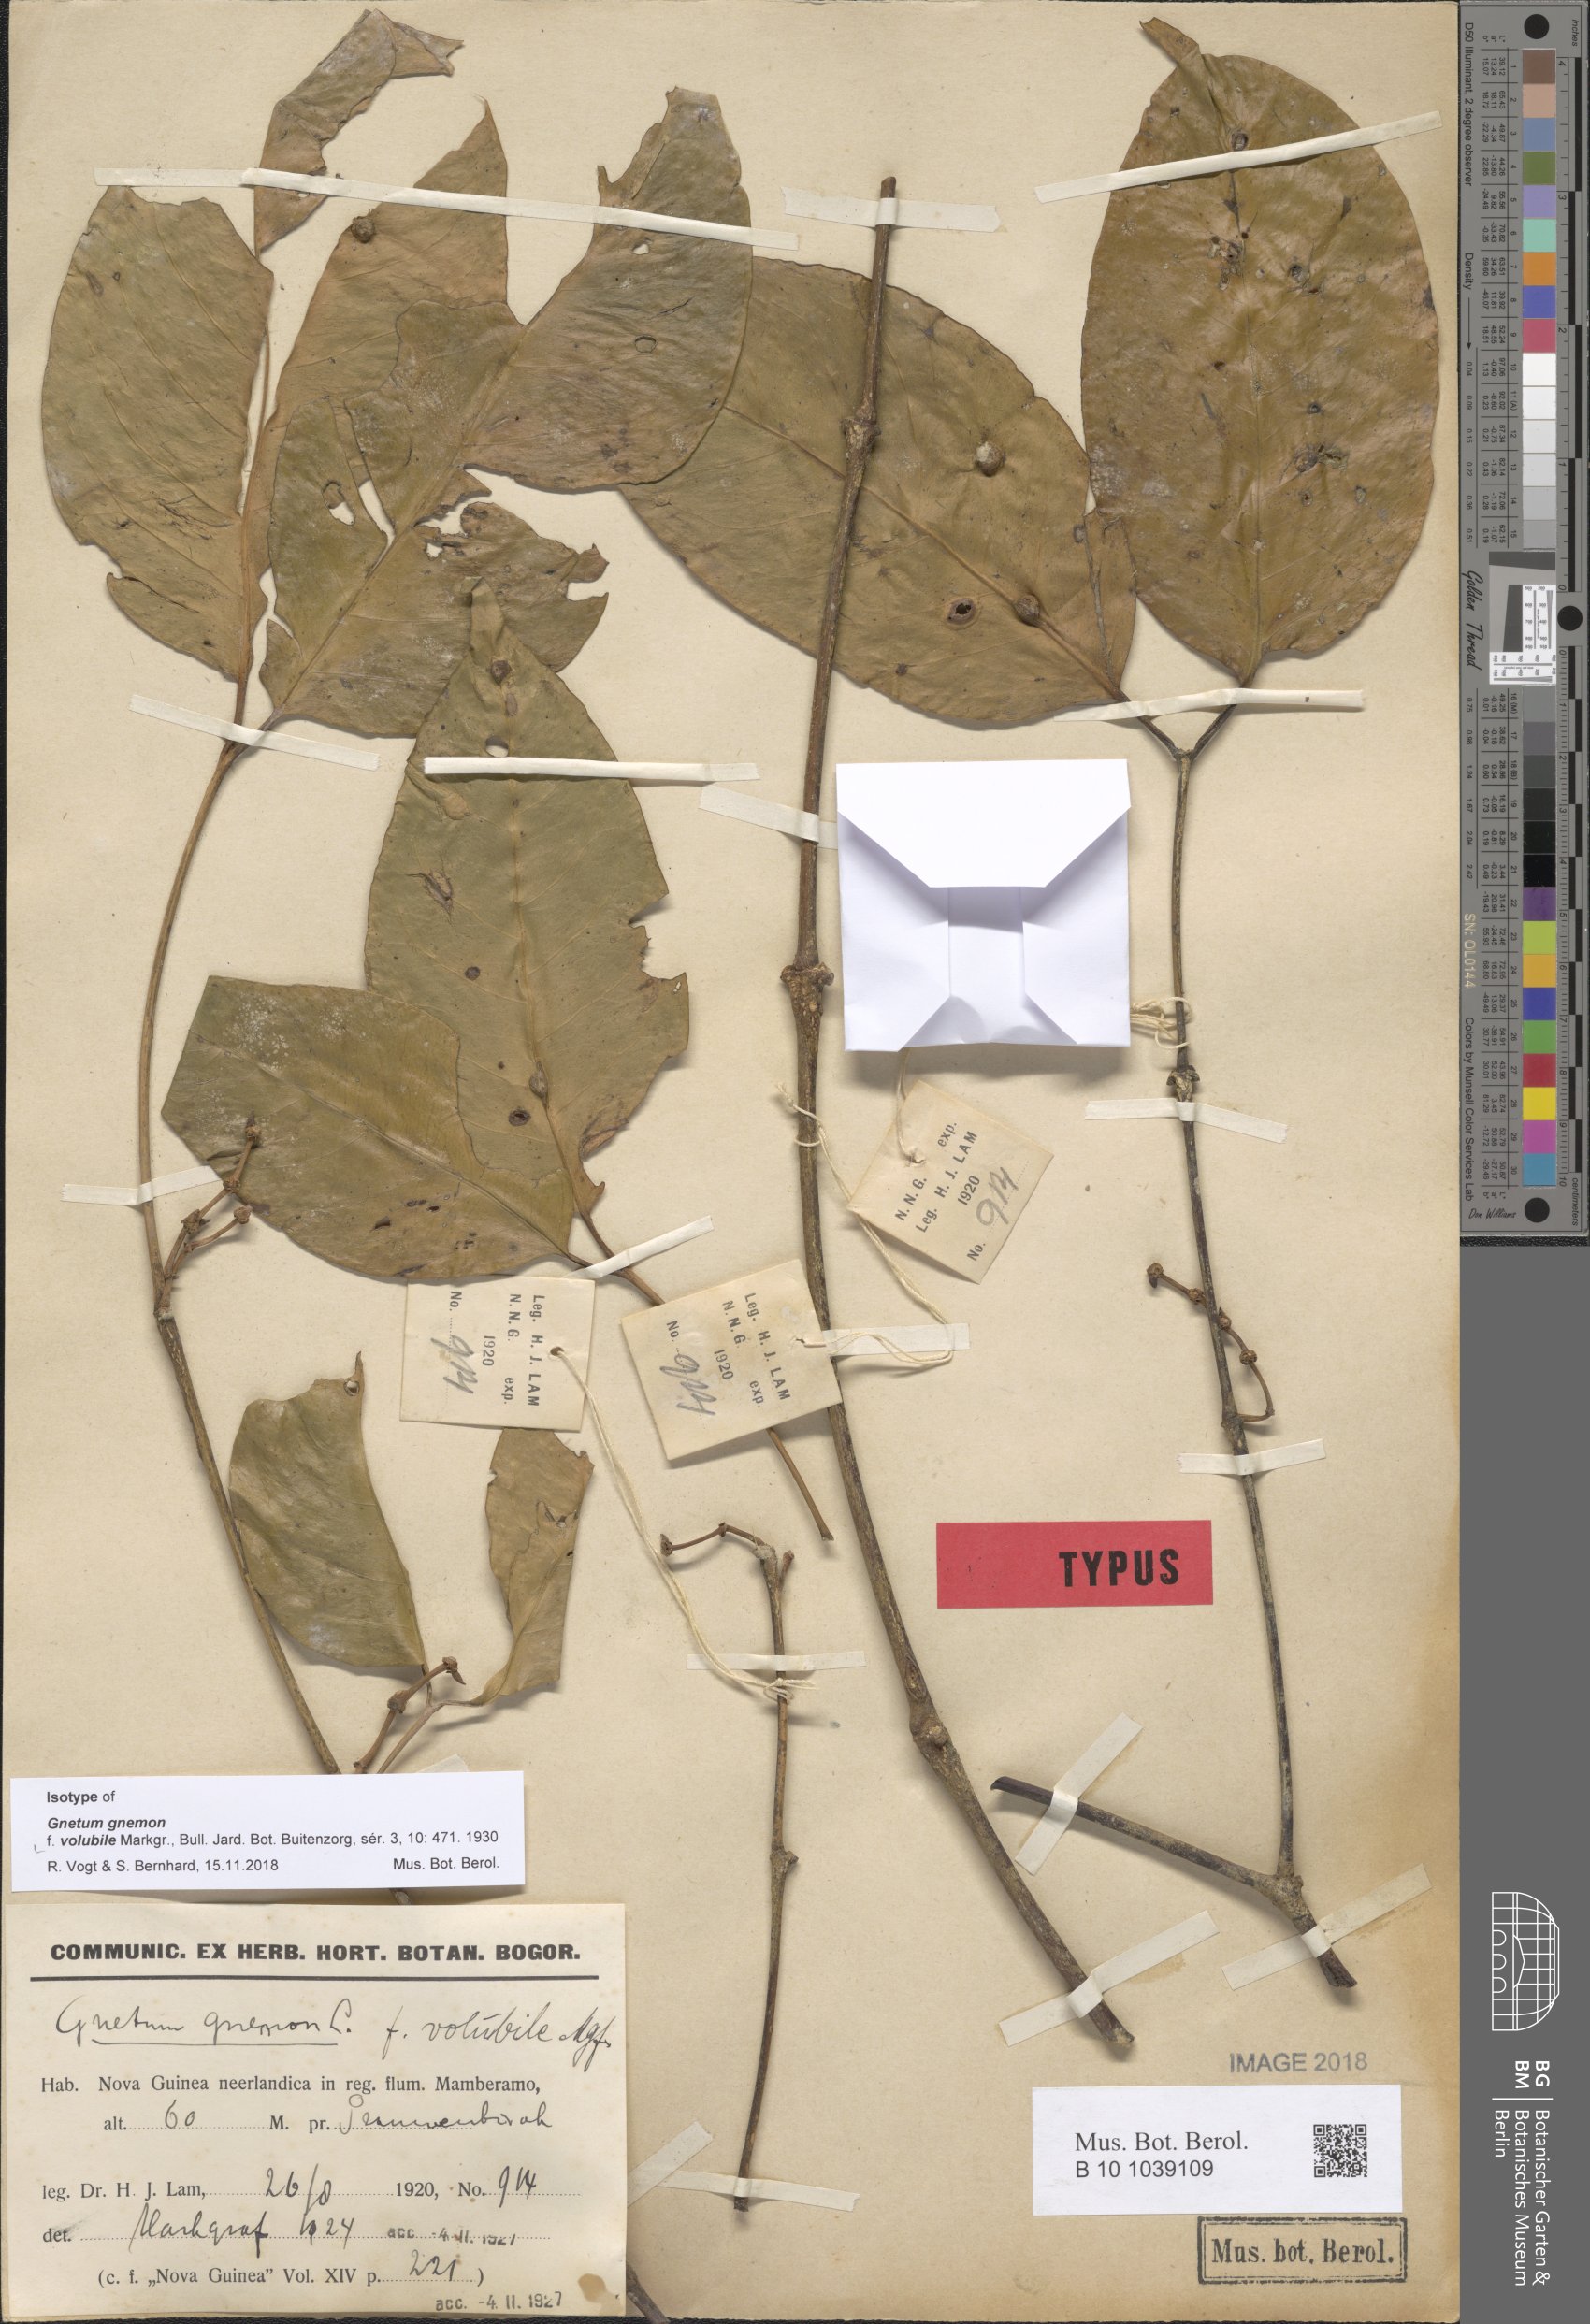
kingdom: Plantae
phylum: Tracheophyta
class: Gnetopsida
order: Gnetales
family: Gnetaceae
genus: Gnetum
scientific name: Gnetum gnemon
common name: Spanish joint-fir
